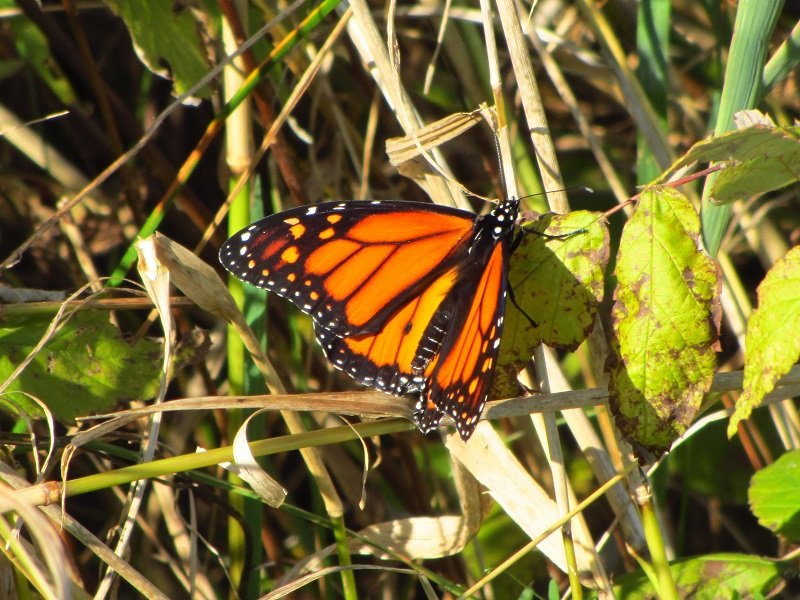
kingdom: Animalia
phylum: Arthropoda
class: Insecta
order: Lepidoptera
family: Nymphalidae
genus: Danaus
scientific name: Danaus plexippus
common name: Monarch
